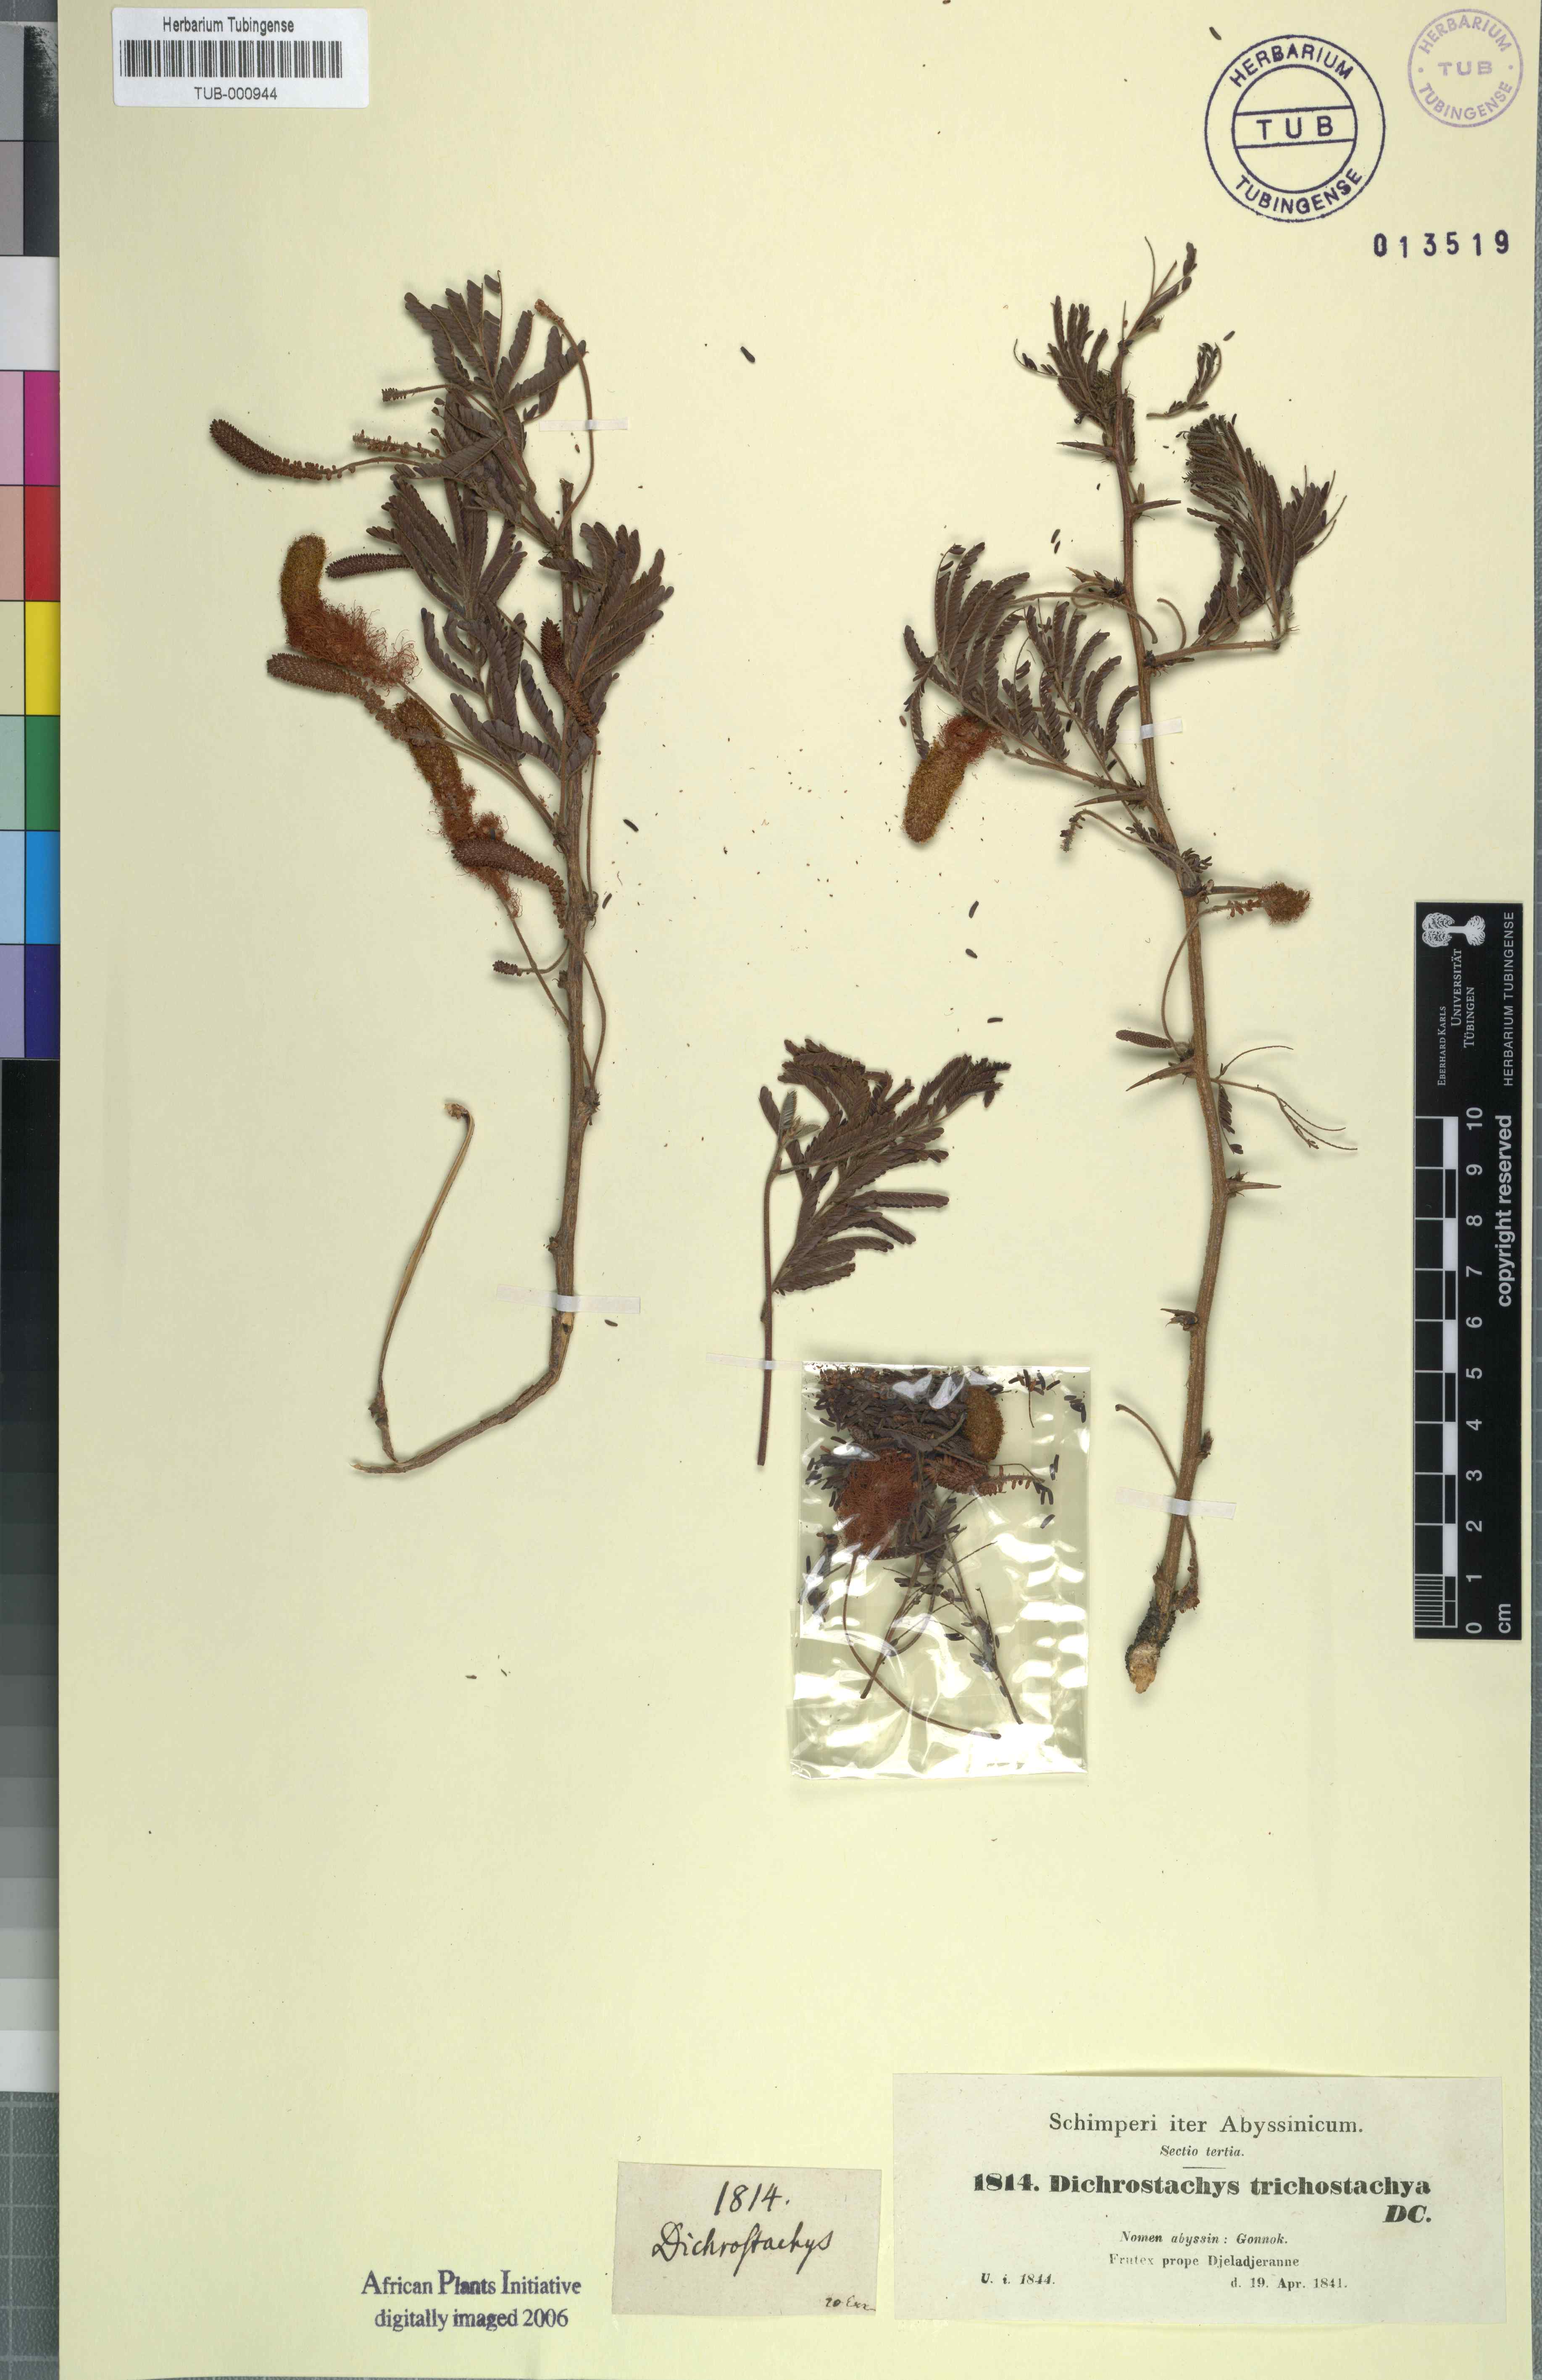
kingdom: Plantae
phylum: Tracheophyta
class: Magnoliopsida
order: Fabales
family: Fabaceae
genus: Dichrostachys
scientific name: Dichrostachys cinerea
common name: Sicklebush
